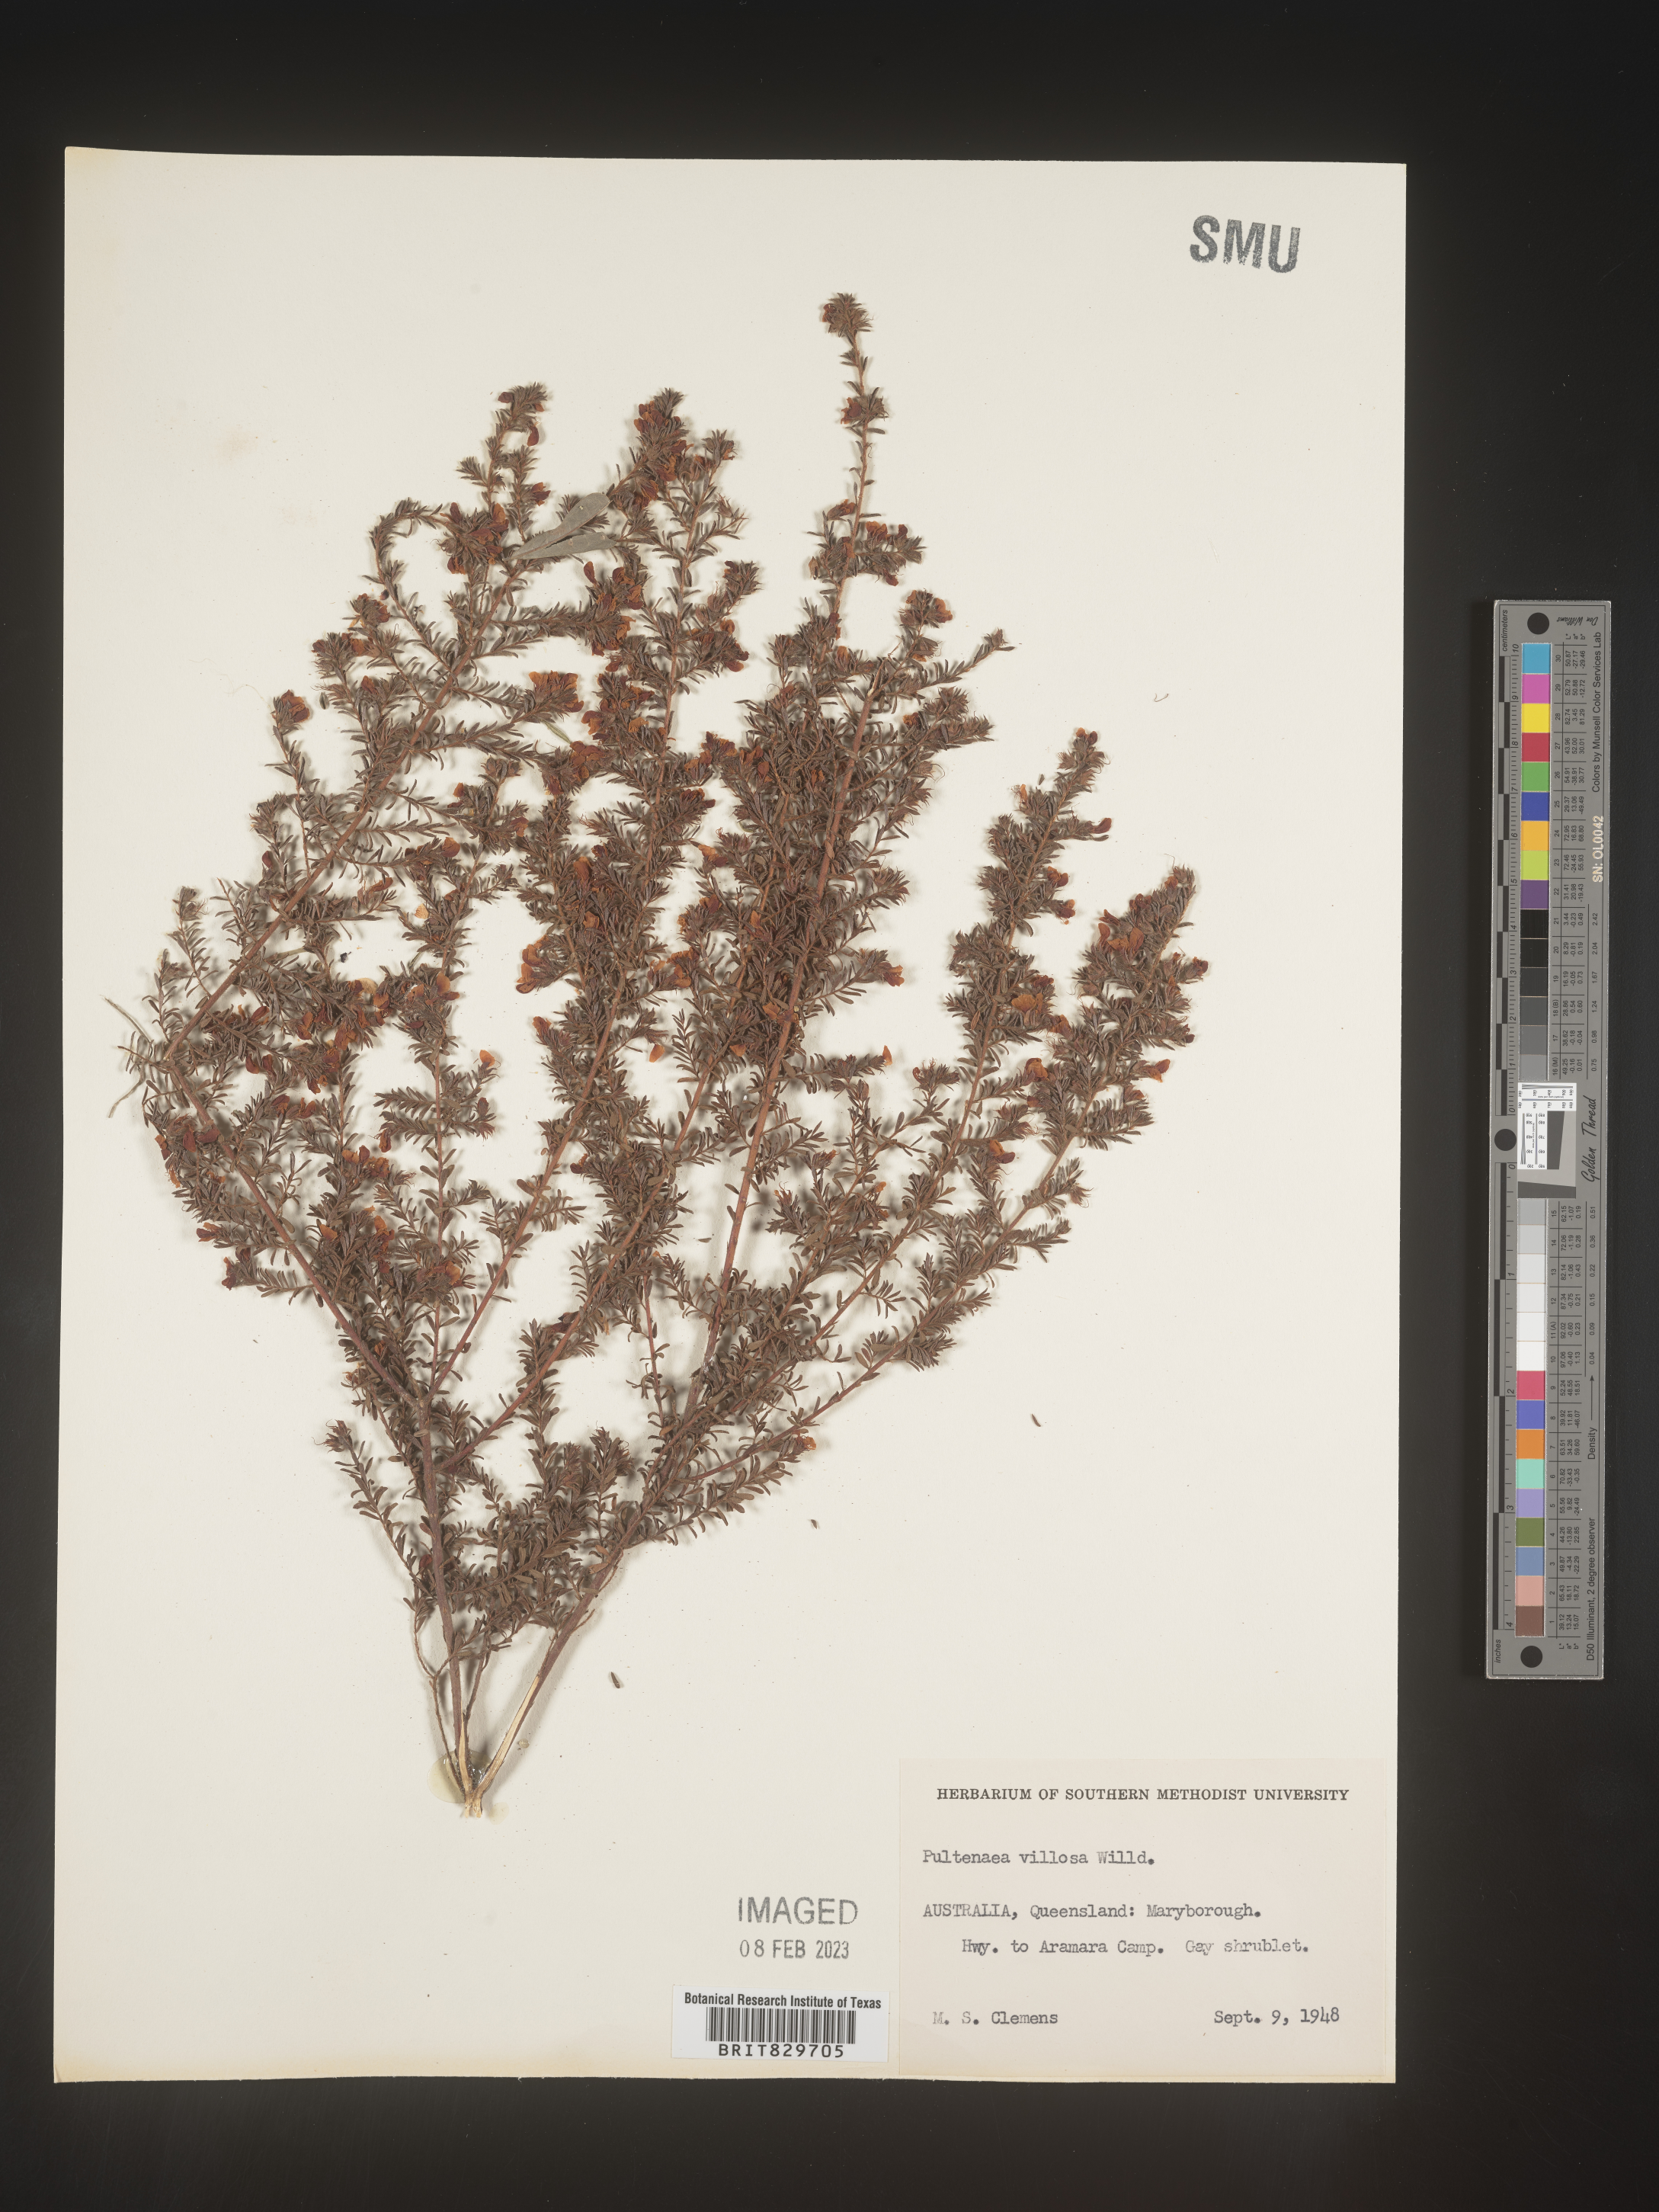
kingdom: Plantae
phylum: Tracheophyta
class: Magnoliopsida
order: Fabales
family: Fabaceae
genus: Pultenaea
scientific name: Pultenaea
